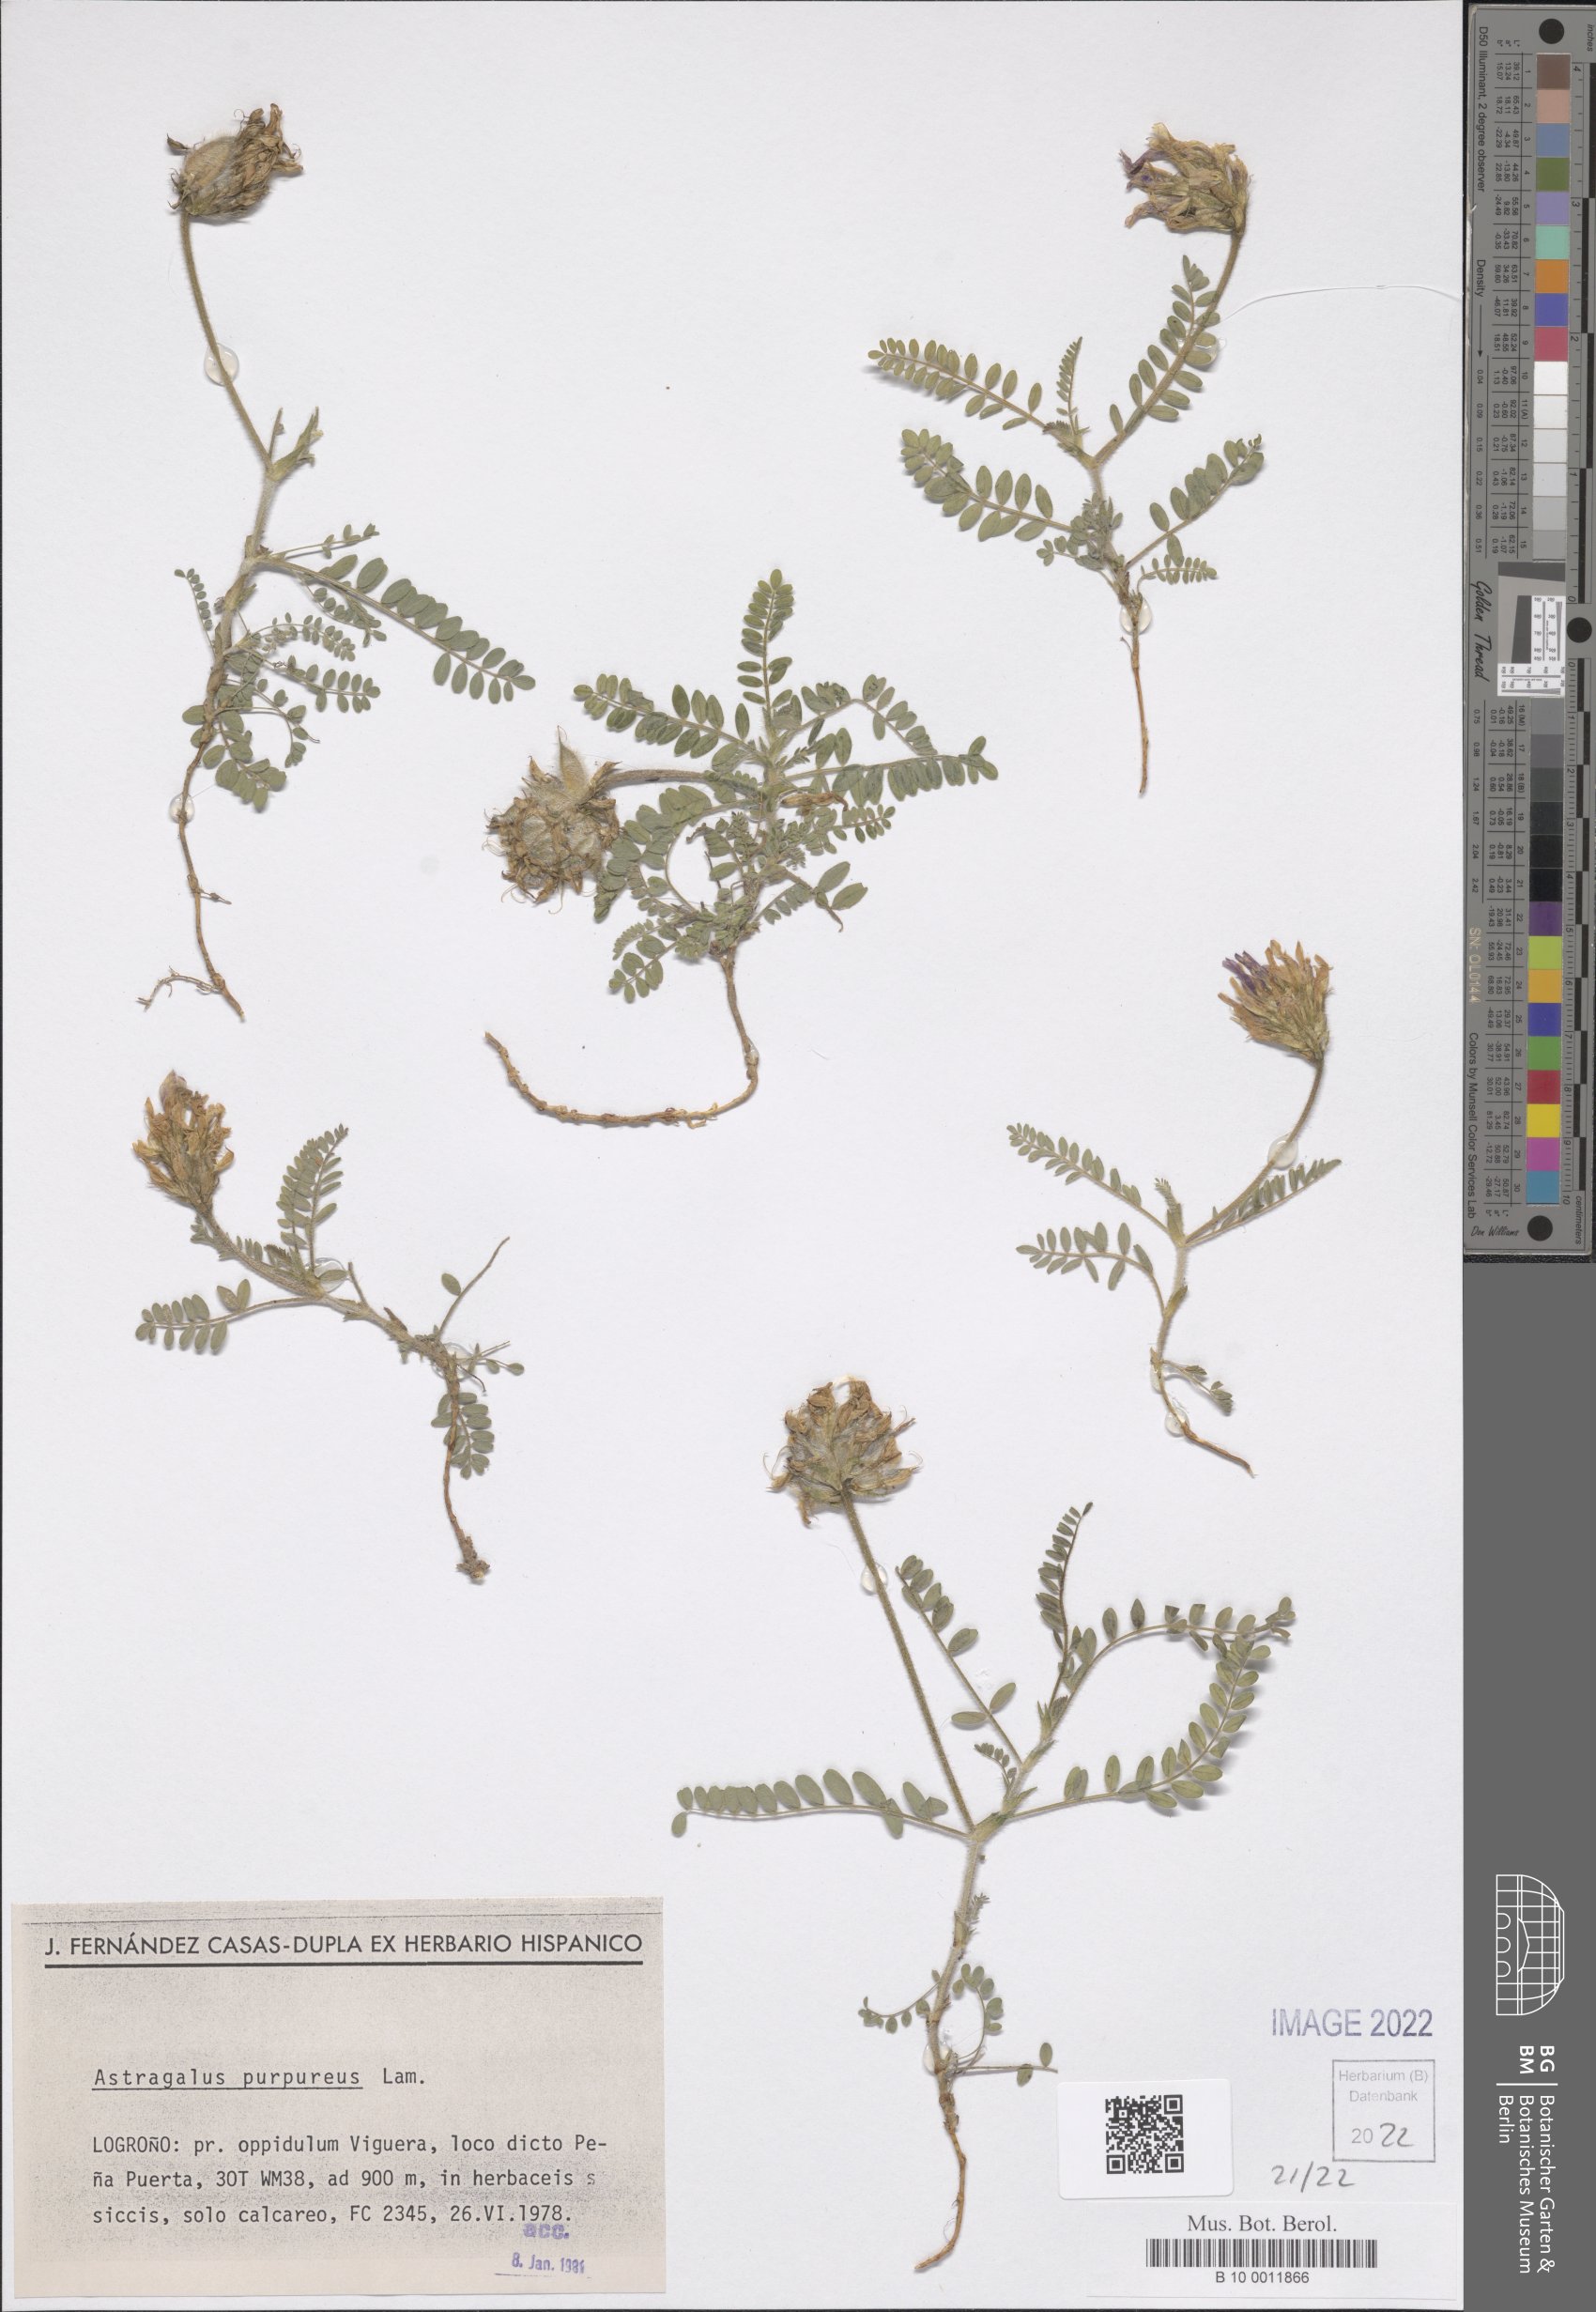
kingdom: Plantae
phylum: Tracheophyta
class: Magnoliopsida
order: Fabales
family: Fabaceae
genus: Astragalus
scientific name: Astragalus hypoglottis
